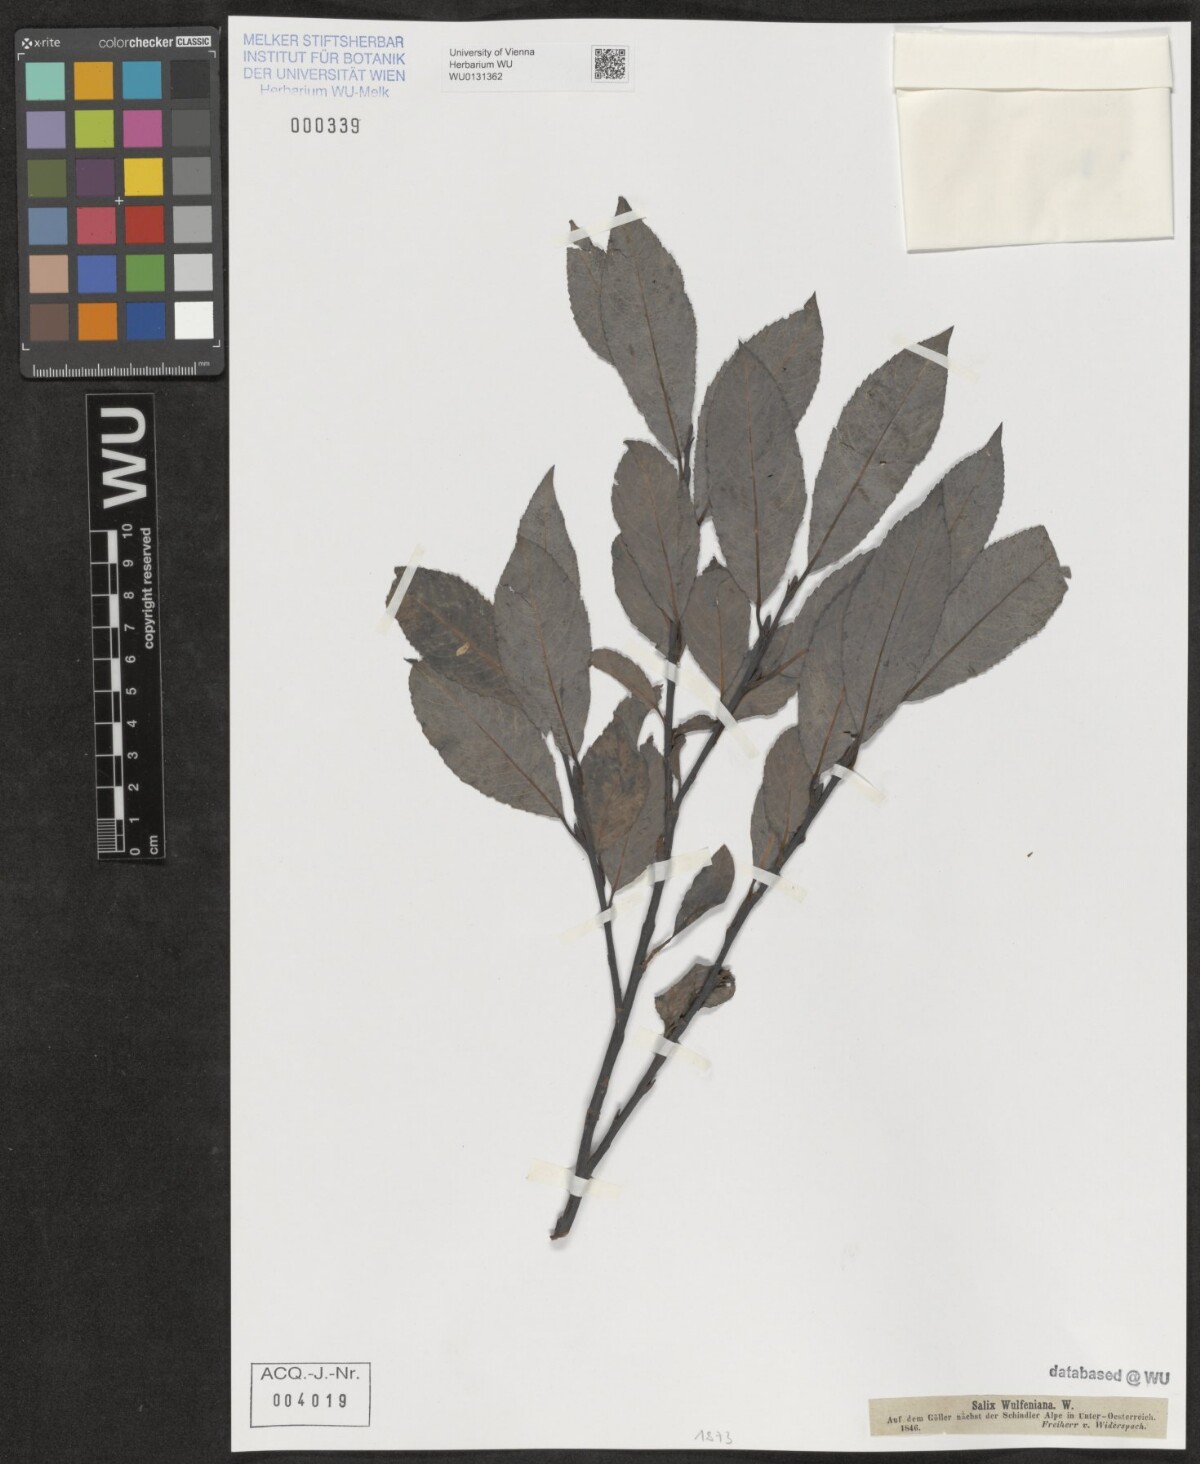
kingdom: Plantae
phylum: Tracheophyta
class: Magnoliopsida
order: Malpighiales
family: Salicaceae
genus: Salix
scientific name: Salix glabra
